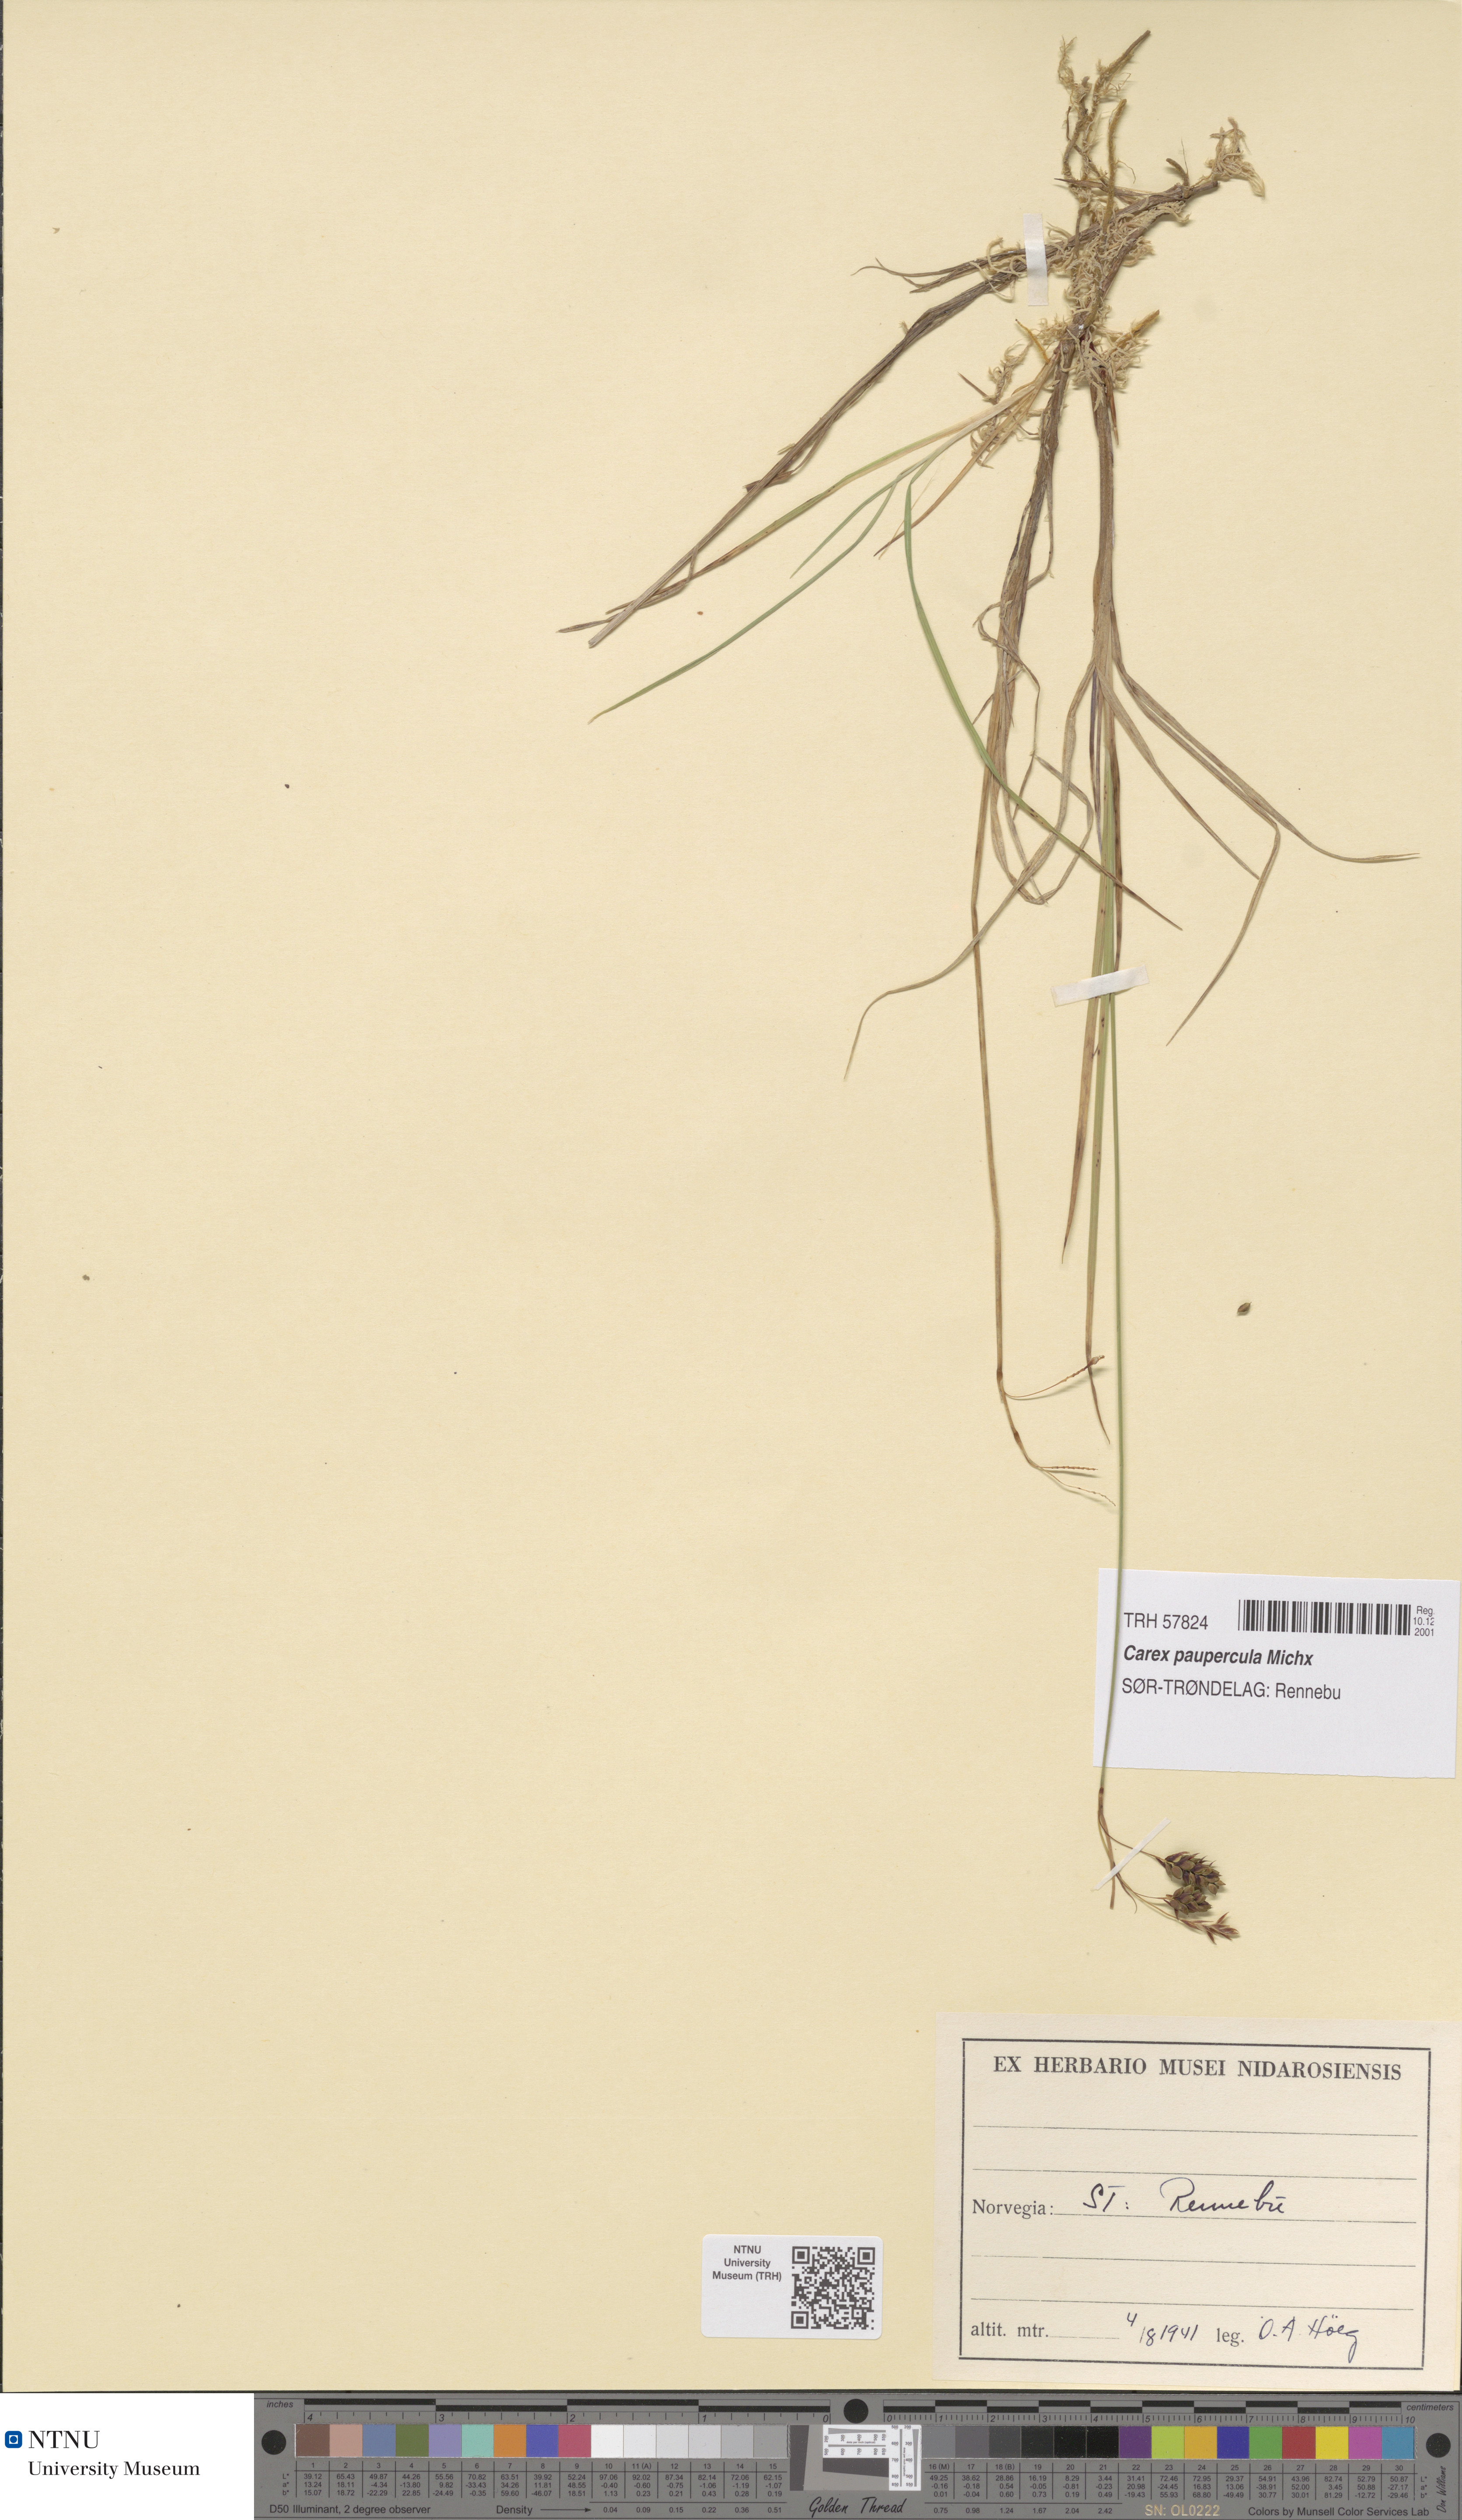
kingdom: Plantae
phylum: Tracheophyta
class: Liliopsida
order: Poales
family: Cyperaceae
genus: Carex
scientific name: Carex magellanica
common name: Bog sedge
